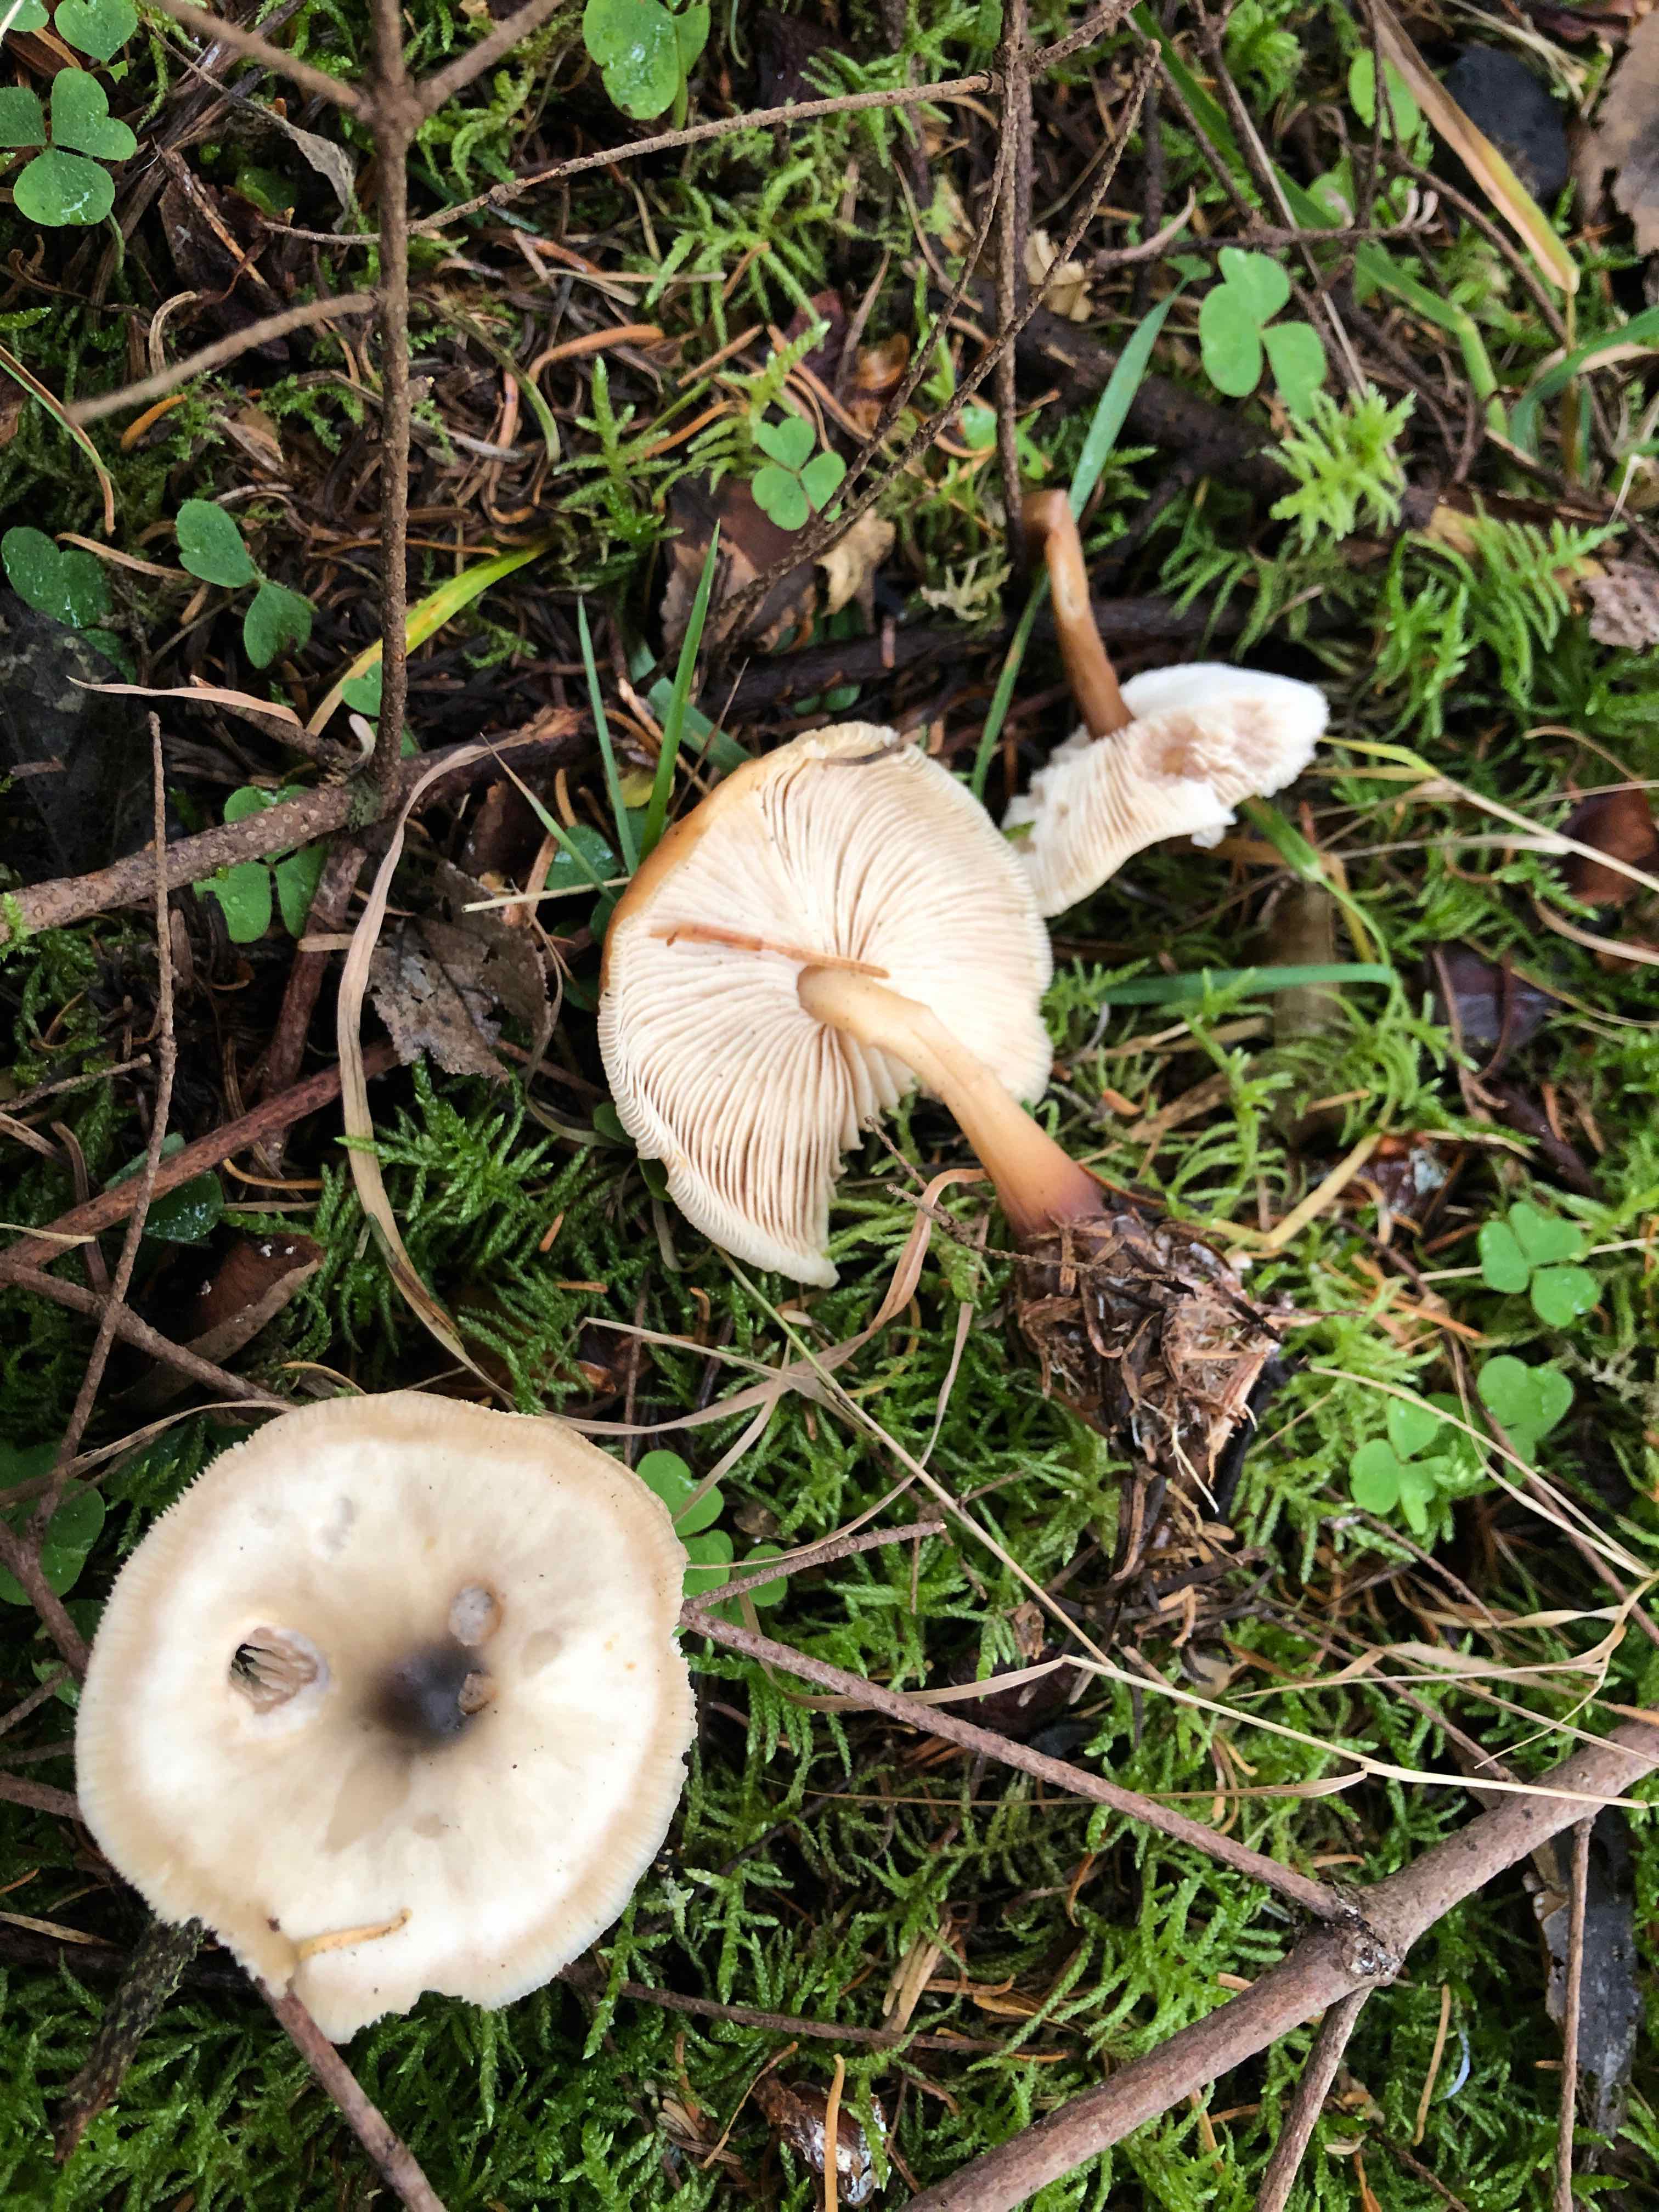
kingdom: Fungi
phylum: Basidiomycota
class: Agaricomycetes
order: Agaricales
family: Omphalotaceae
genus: Rhodocollybia
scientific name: Rhodocollybia asema
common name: horngrå fladhat
